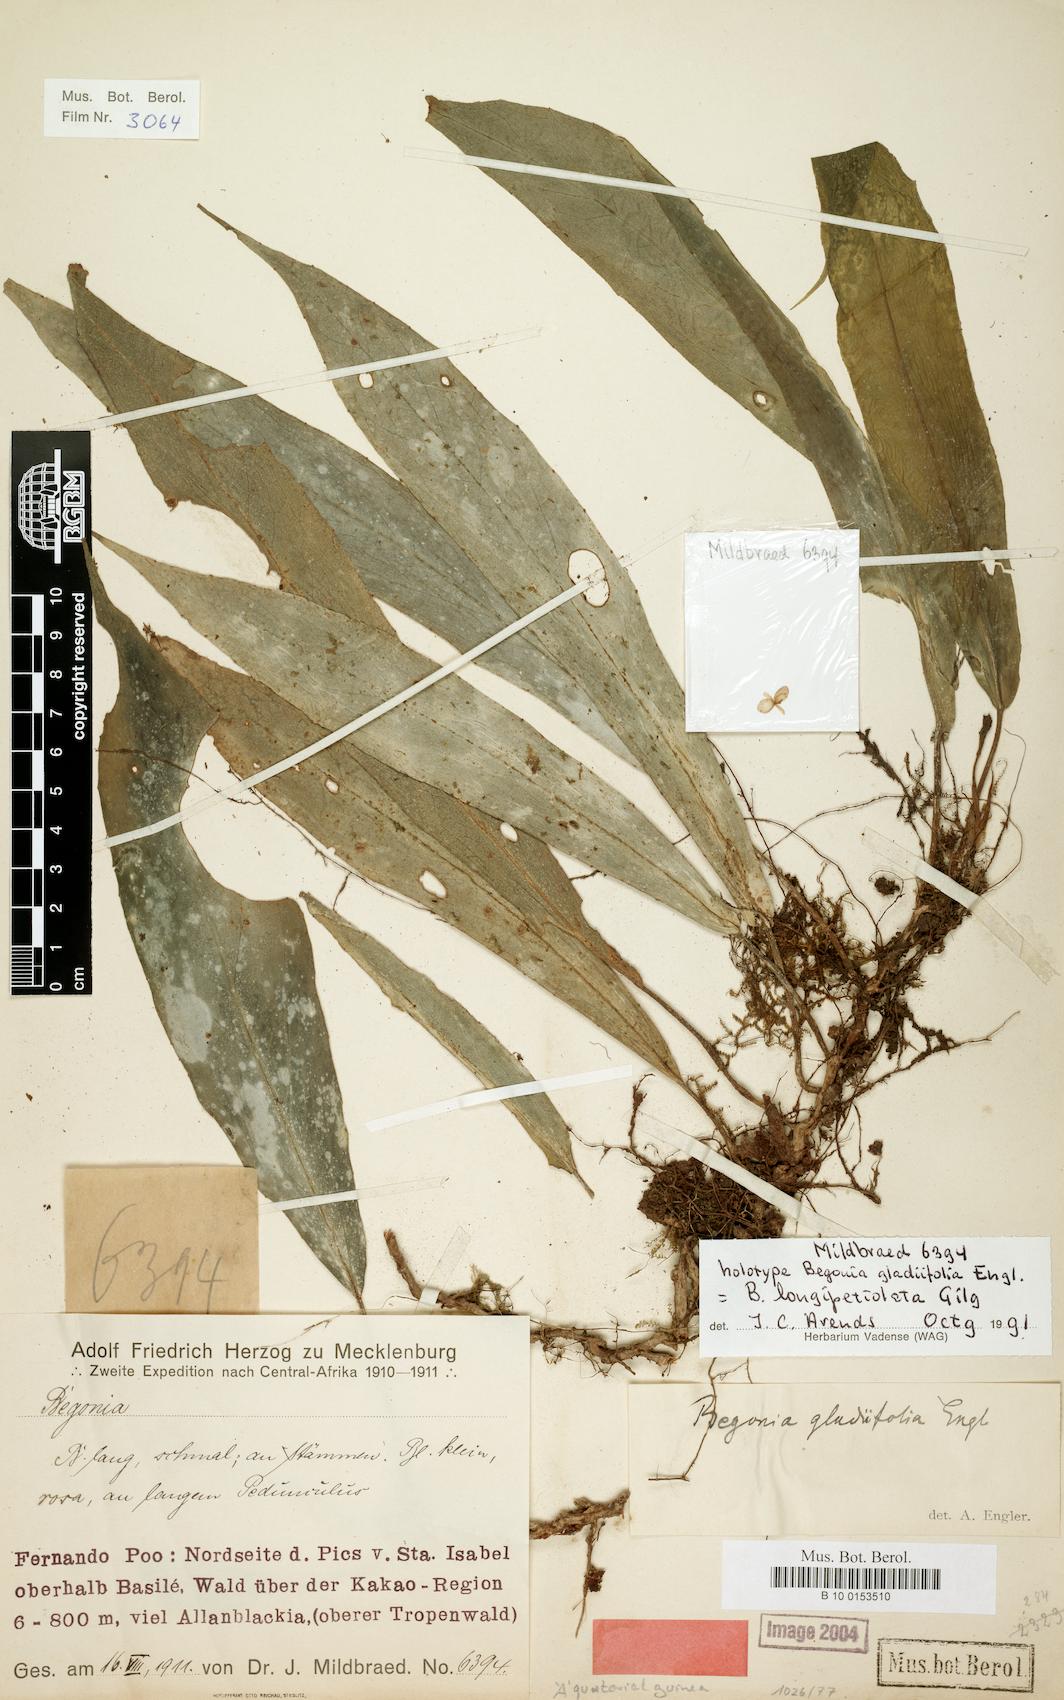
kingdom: Plantae
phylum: Tracheophyta
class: Magnoliopsida
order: Cucurbitales
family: Begoniaceae
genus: Begonia
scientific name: Begonia longipetiolata
